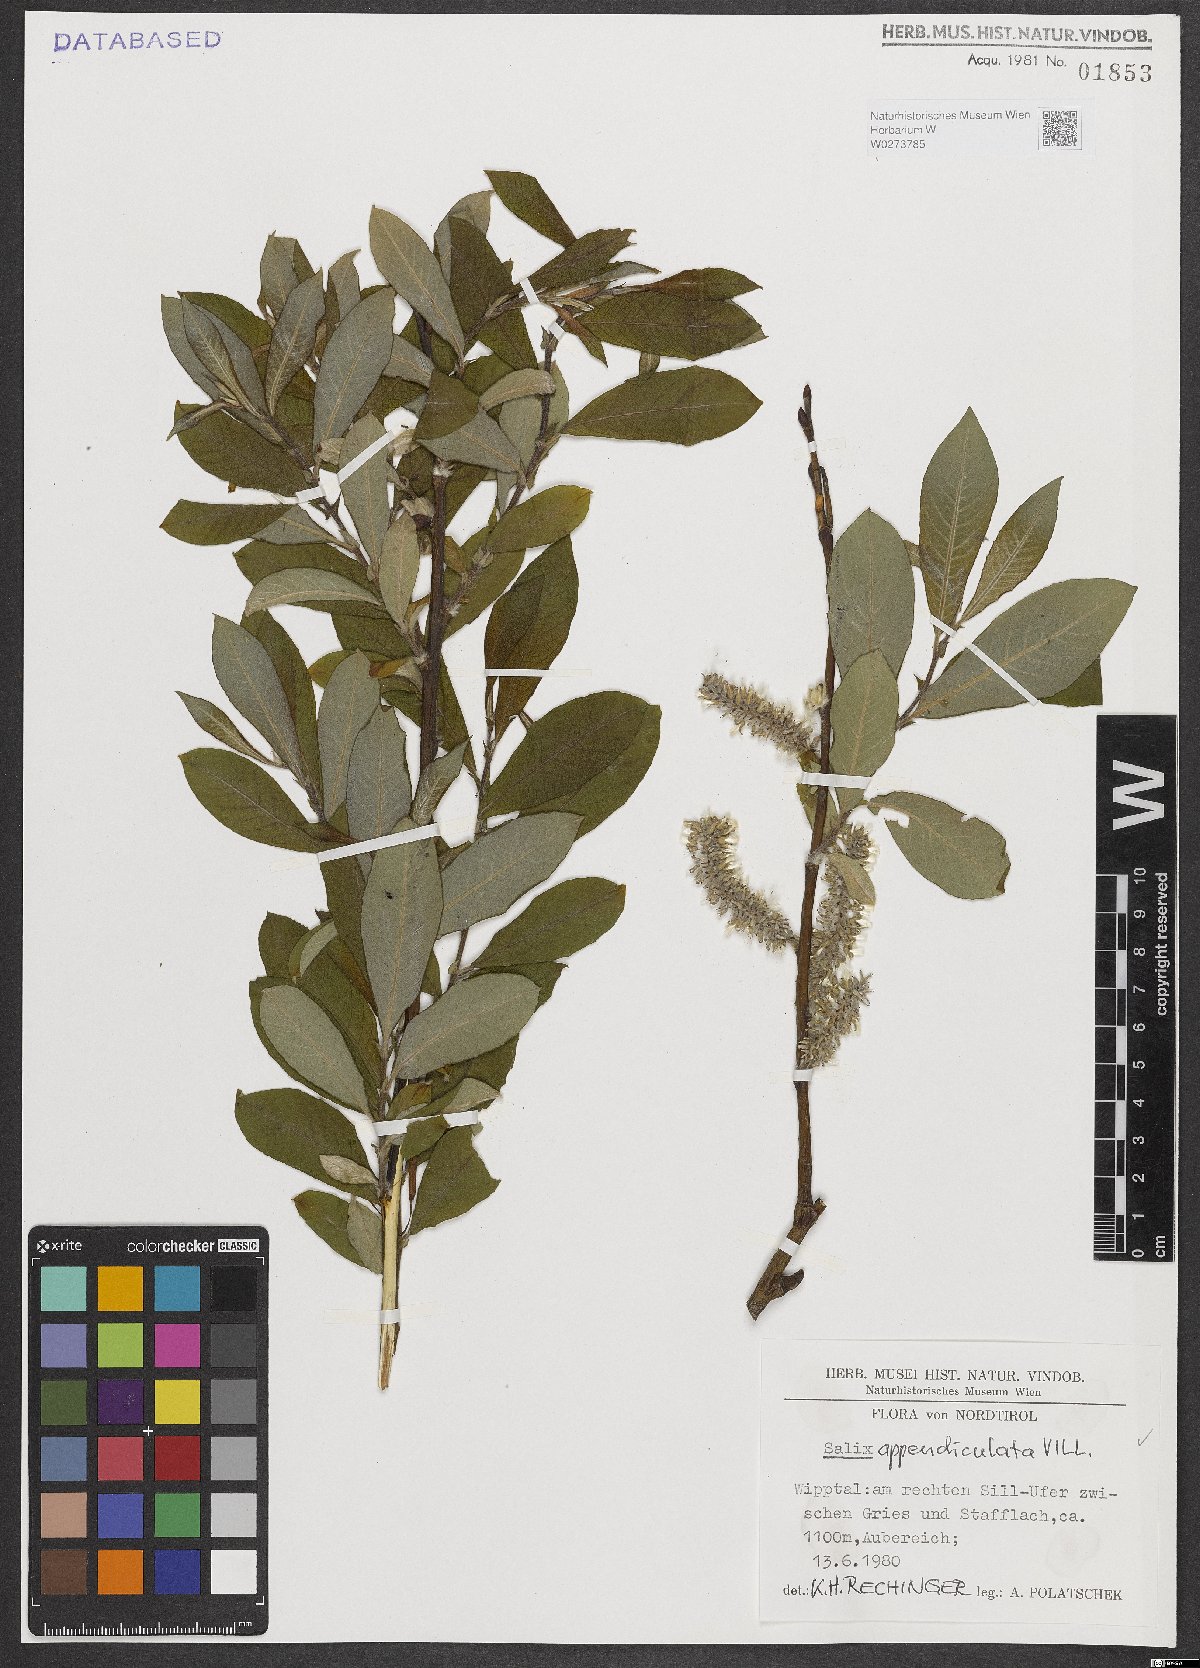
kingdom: Plantae
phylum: Tracheophyta
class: Magnoliopsida
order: Malpighiales
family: Salicaceae
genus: Salix
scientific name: Salix appendiculata
